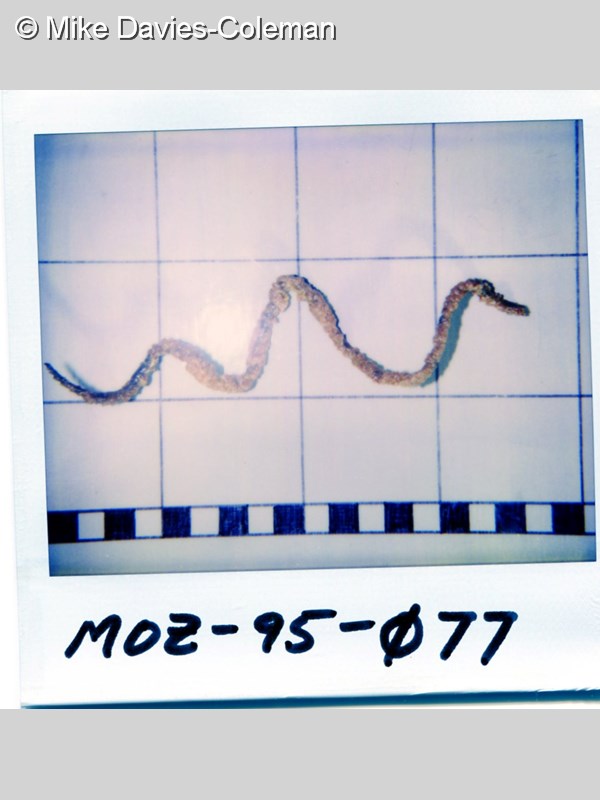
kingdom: Animalia
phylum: Cnidaria
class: Anthozoa
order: Antipatharia
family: Antipathidae
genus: Cirrhipathes
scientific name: Cirrhipathes
